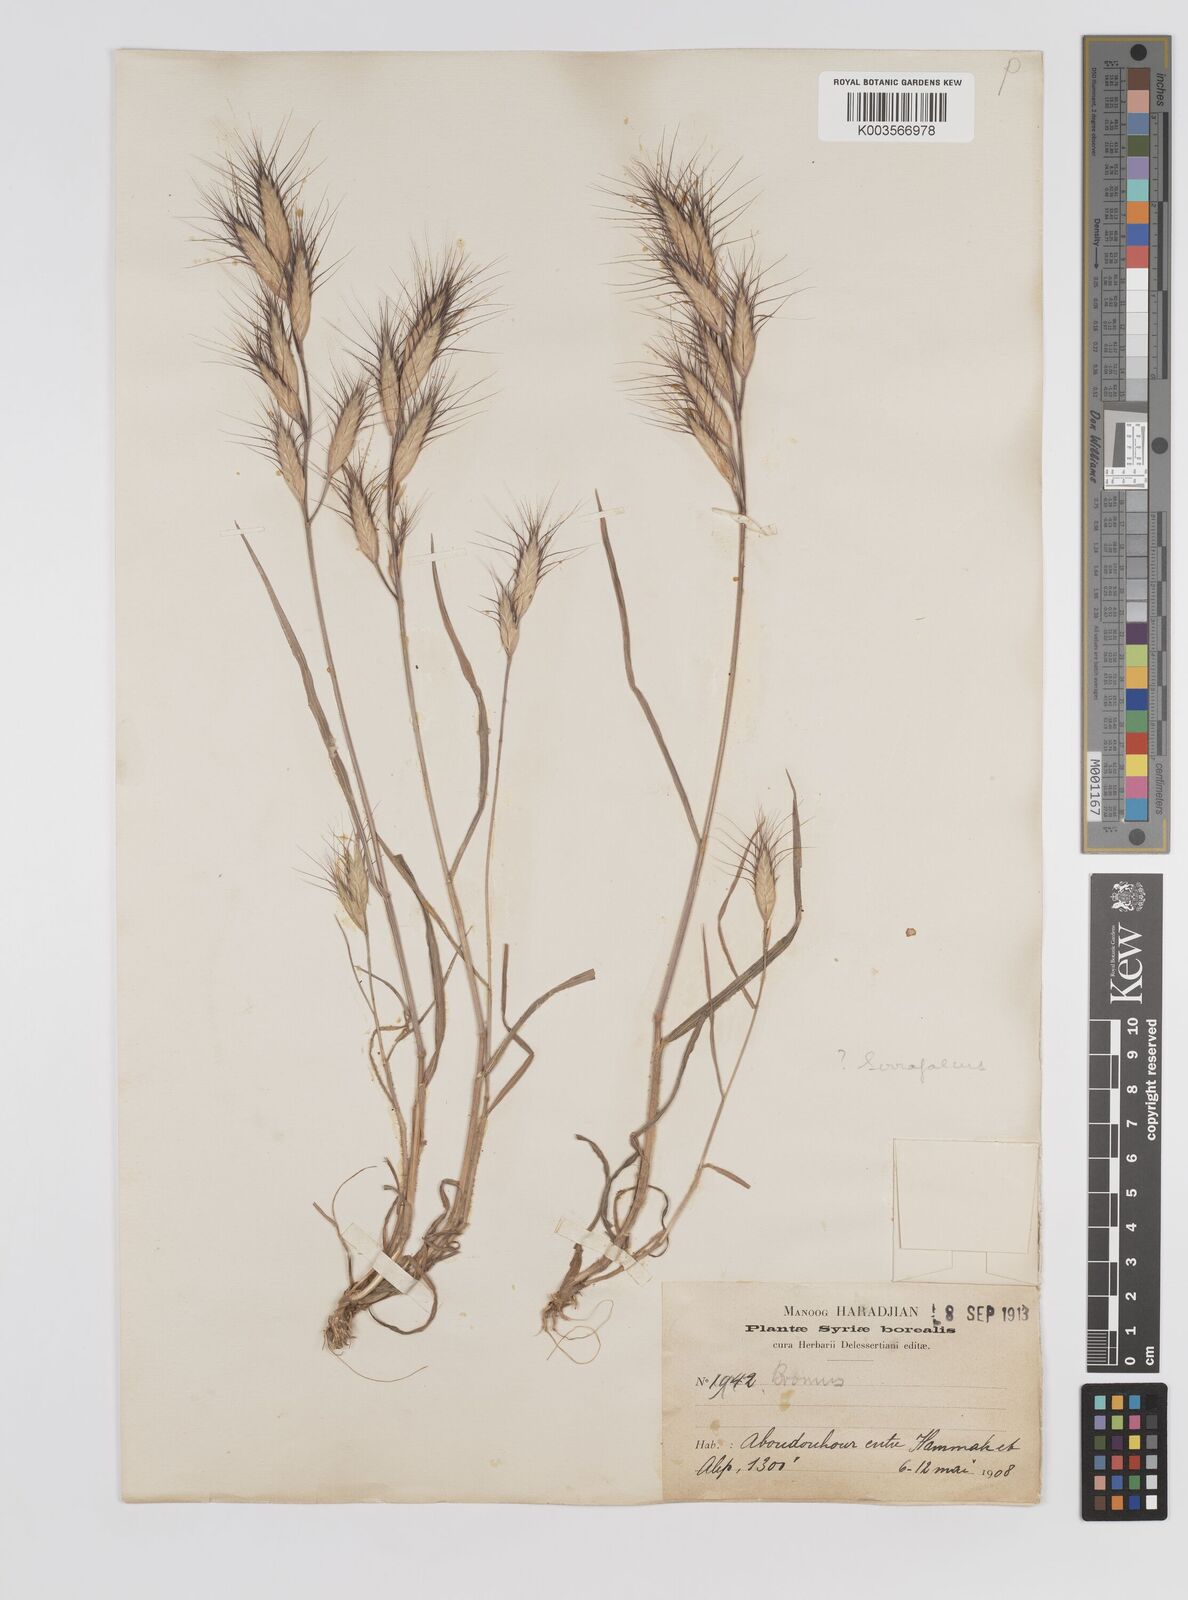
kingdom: Plantae
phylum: Tracheophyta
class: Liliopsida
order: Poales
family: Poaceae
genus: Bromus
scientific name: Bromus danthoniae
